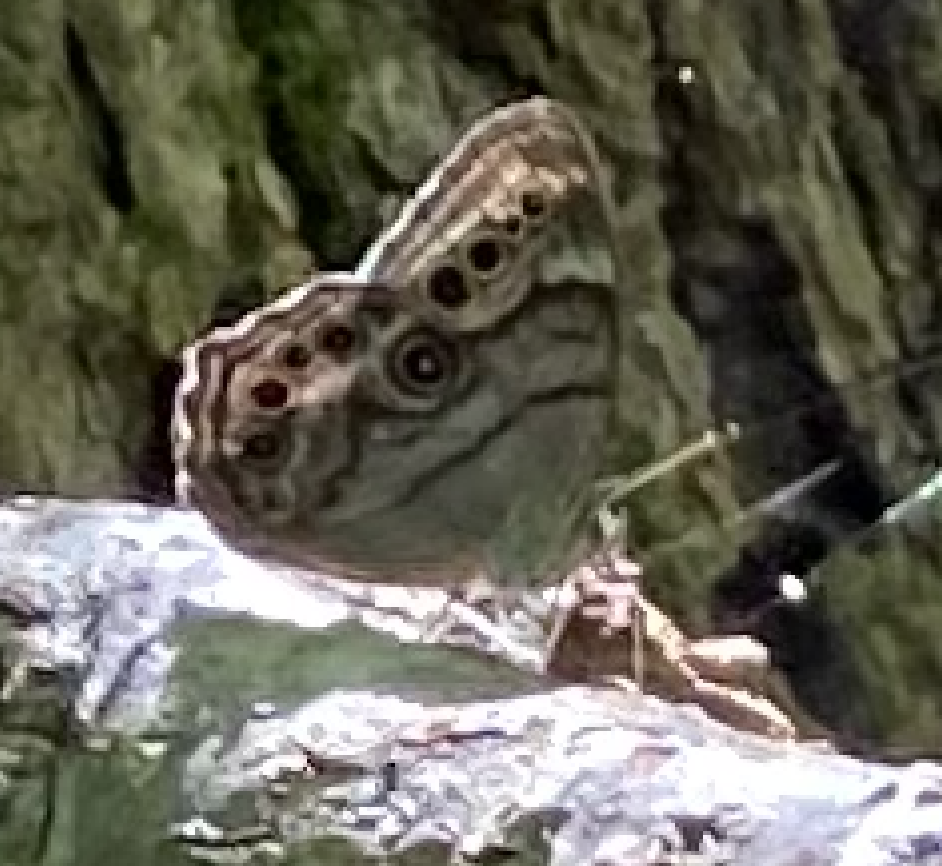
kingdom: Animalia
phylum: Arthropoda
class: Insecta
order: Lepidoptera
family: Nymphalidae
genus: Lethe
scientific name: Lethe anthedon
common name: Northern Pearly-Eye
